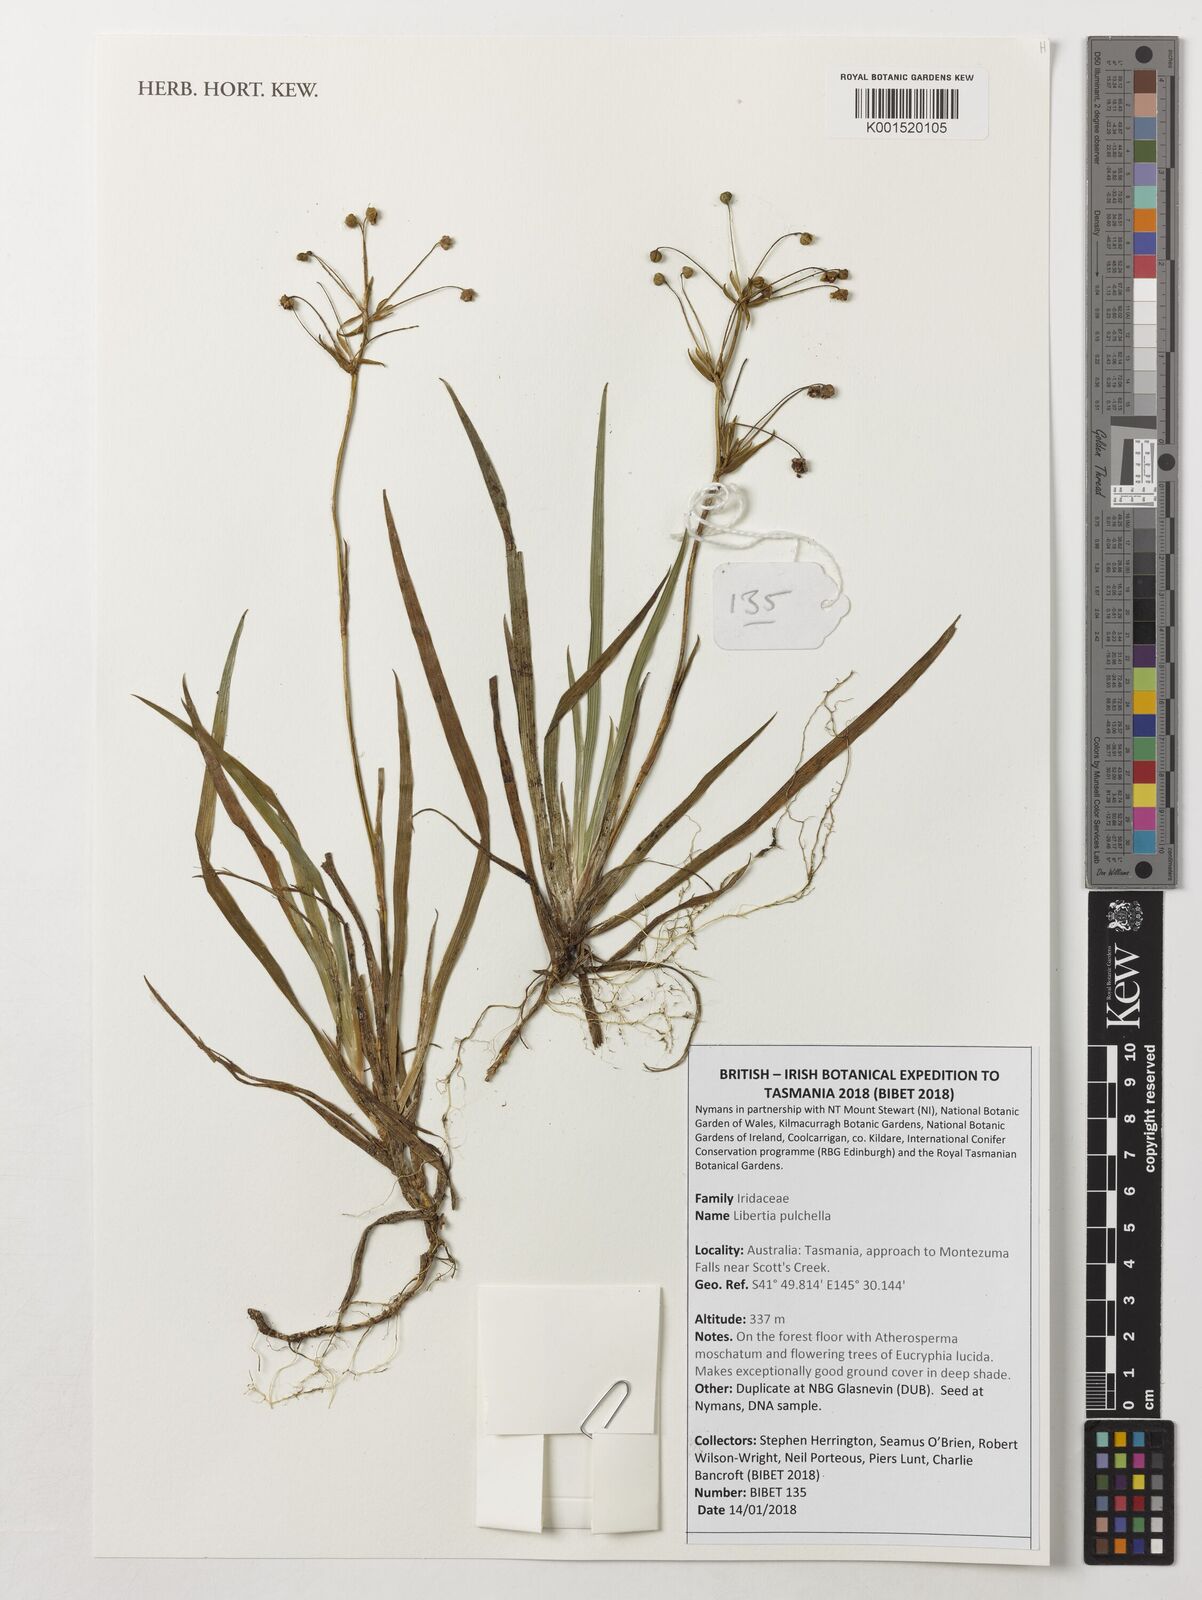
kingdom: Plantae
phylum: Tracheophyta
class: Liliopsida
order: Asparagales
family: Iridaceae
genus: Libertia
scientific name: Libertia pulchella
